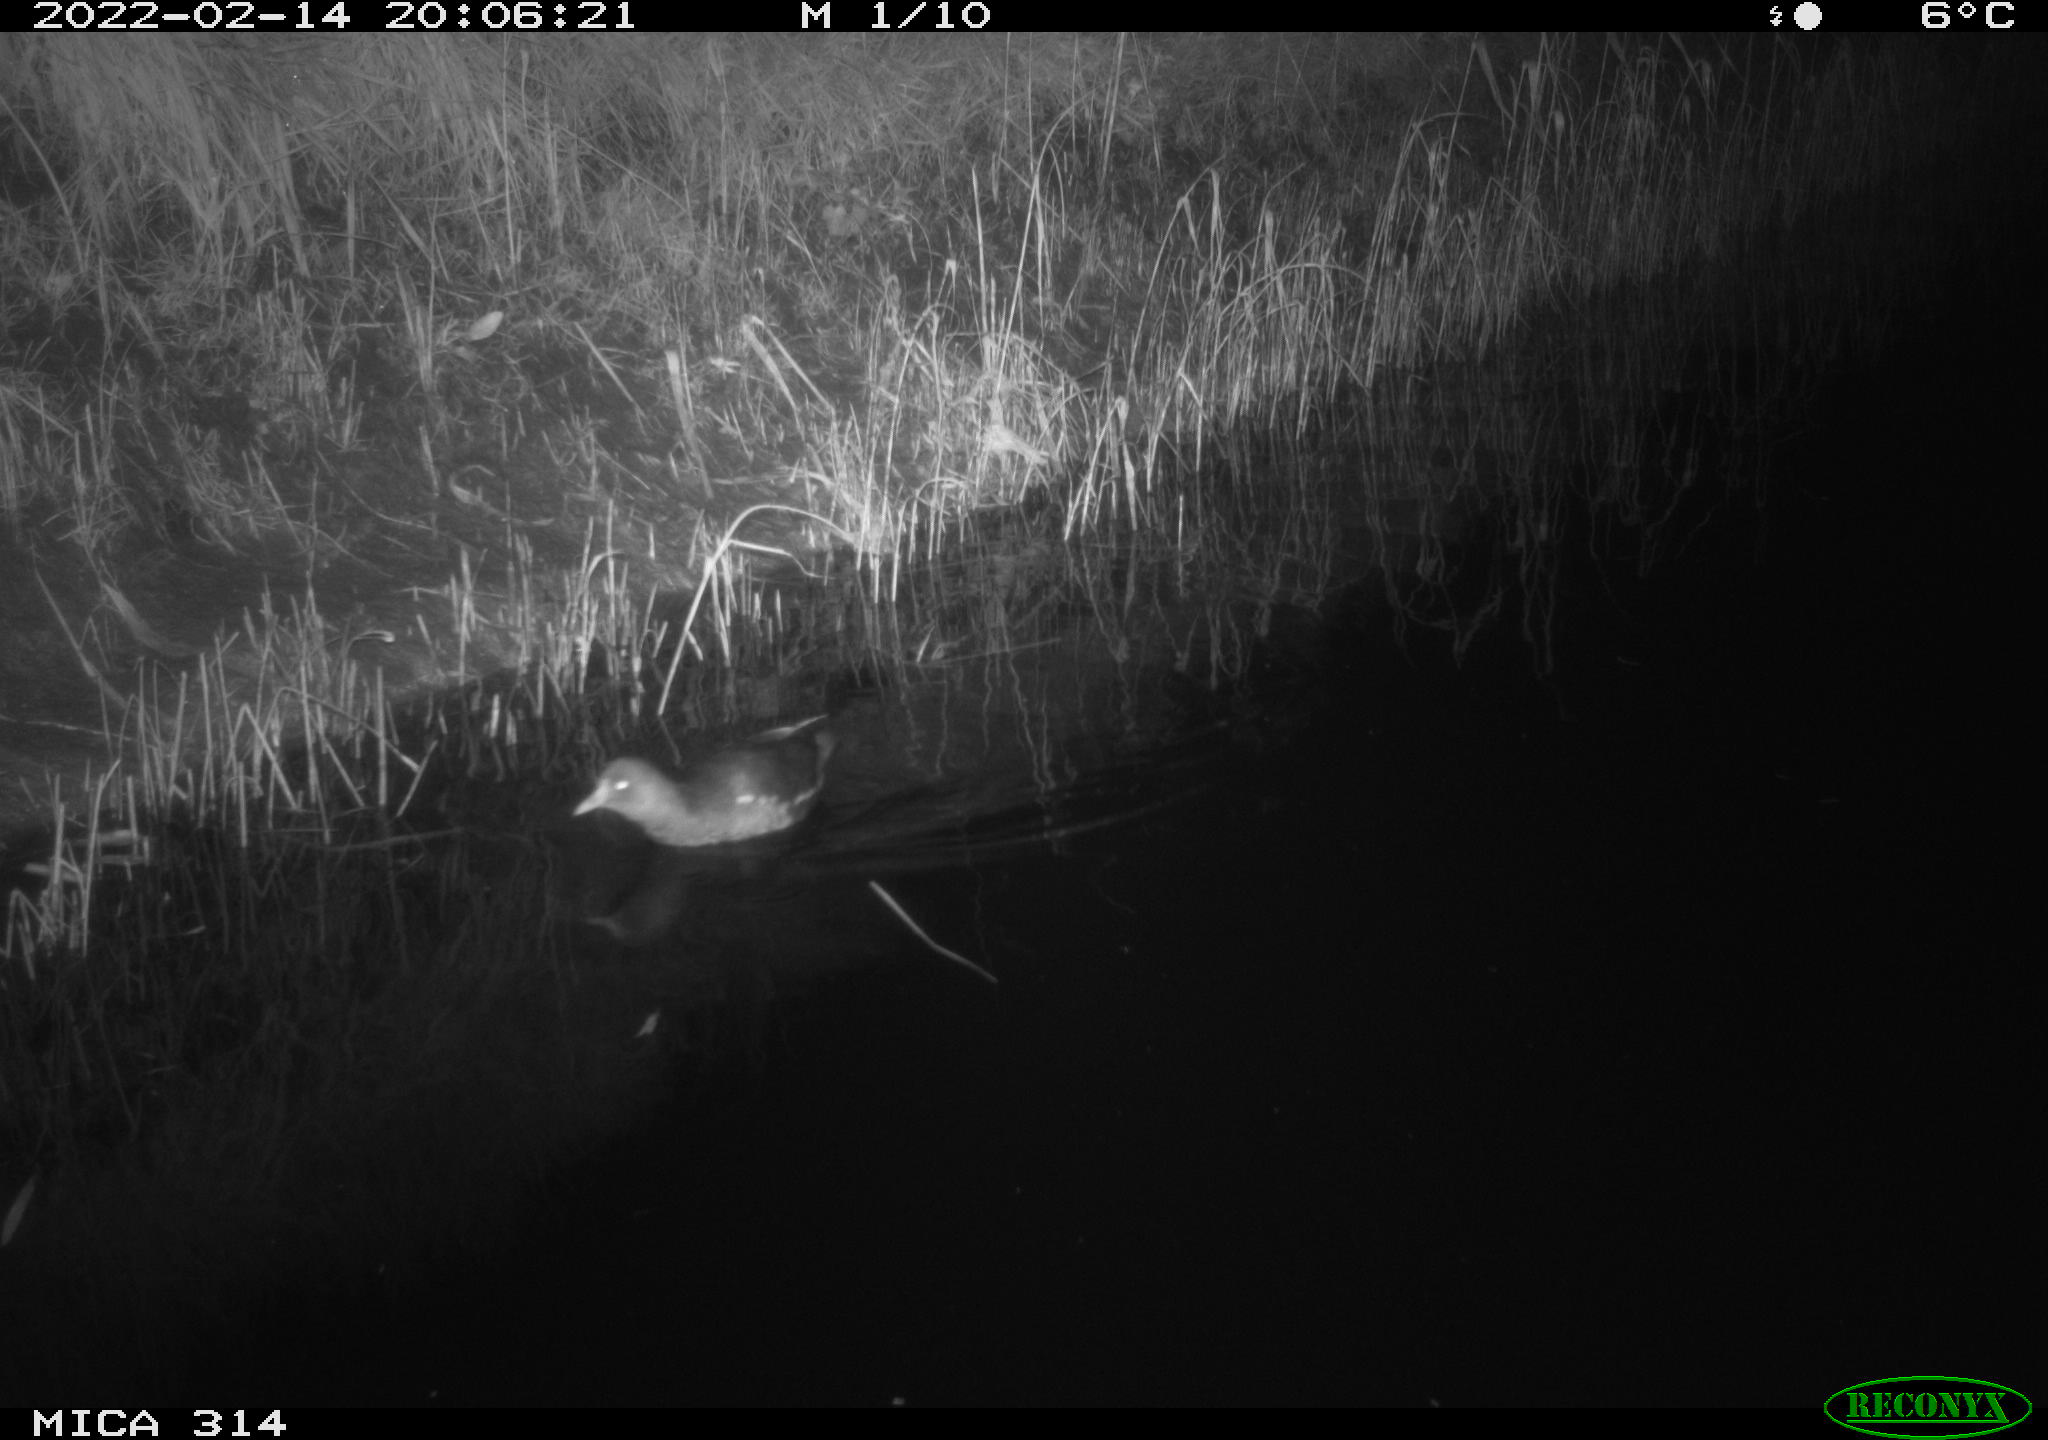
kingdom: Animalia
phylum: Chordata
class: Aves
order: Gruiformes
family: Rallidae
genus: Gallinula
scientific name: Gallinula chloropus
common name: Common moorhen
